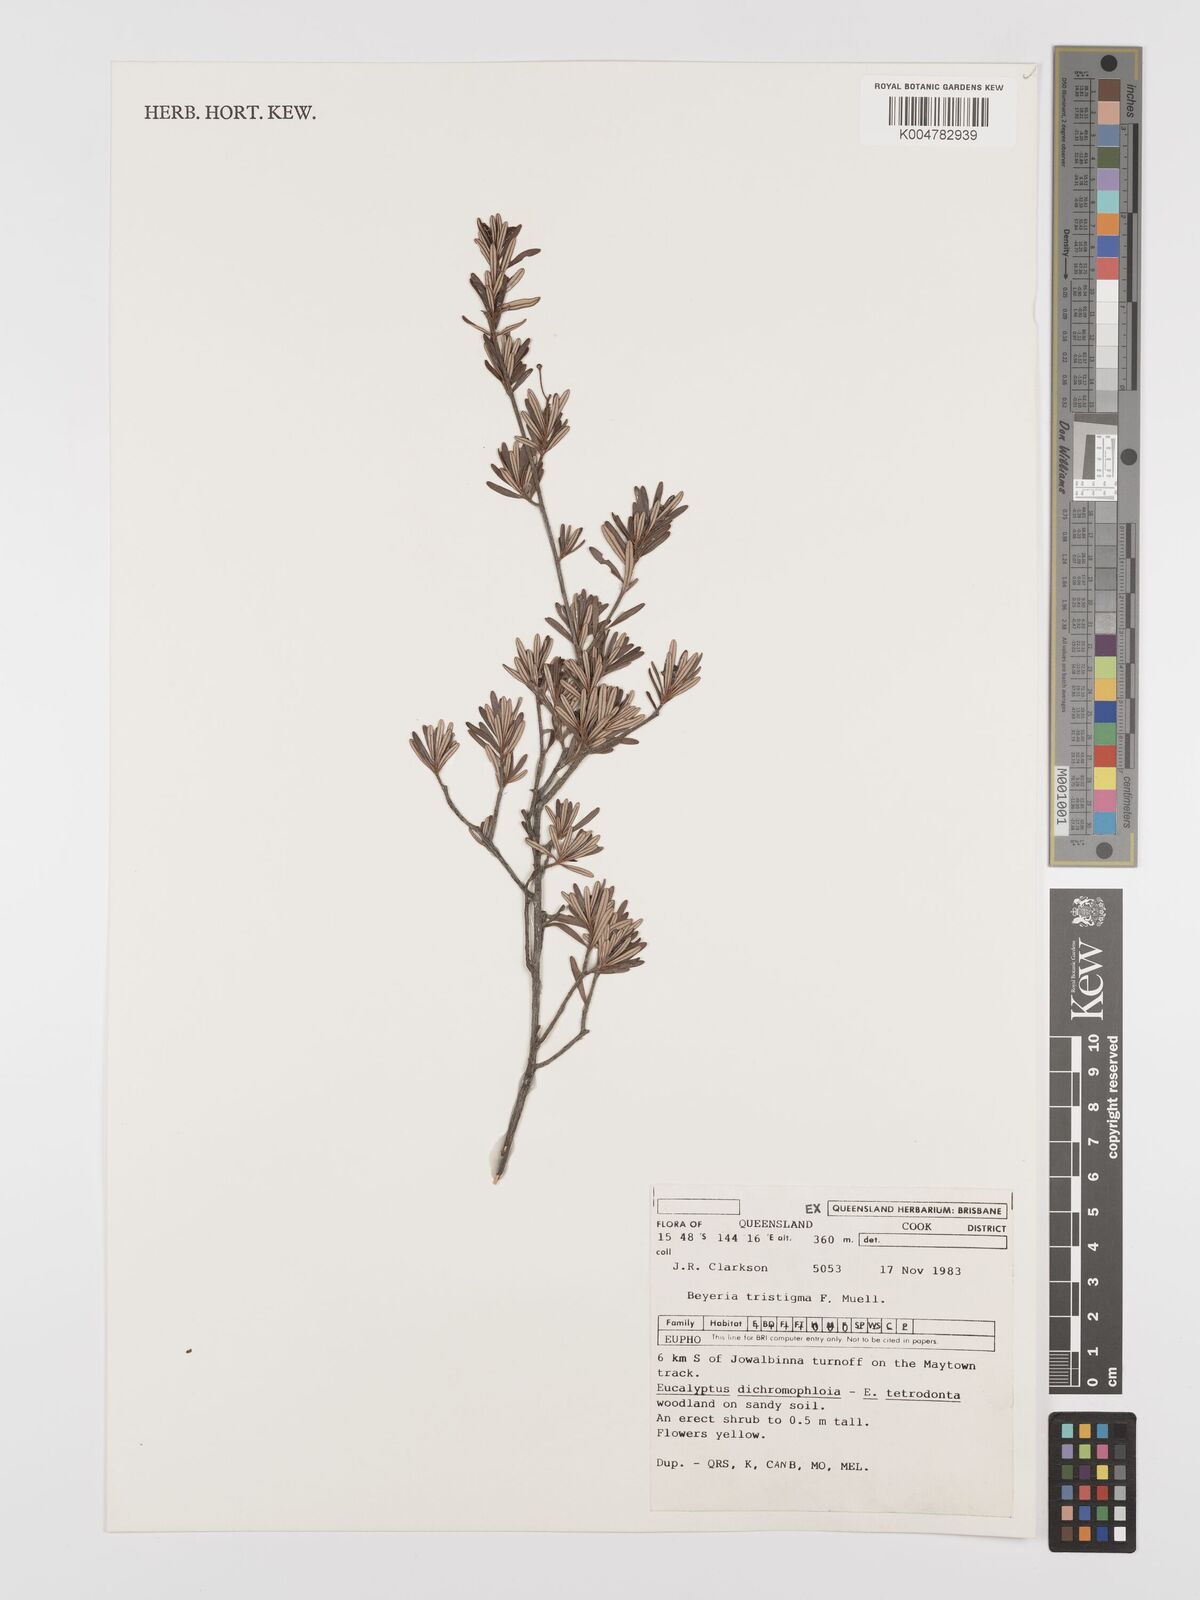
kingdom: Plantae
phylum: Tracheophyta
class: Magnoliopsida
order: Malpighiales
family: Euphorbiaceae
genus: Shonia
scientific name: Shonia tristigma
